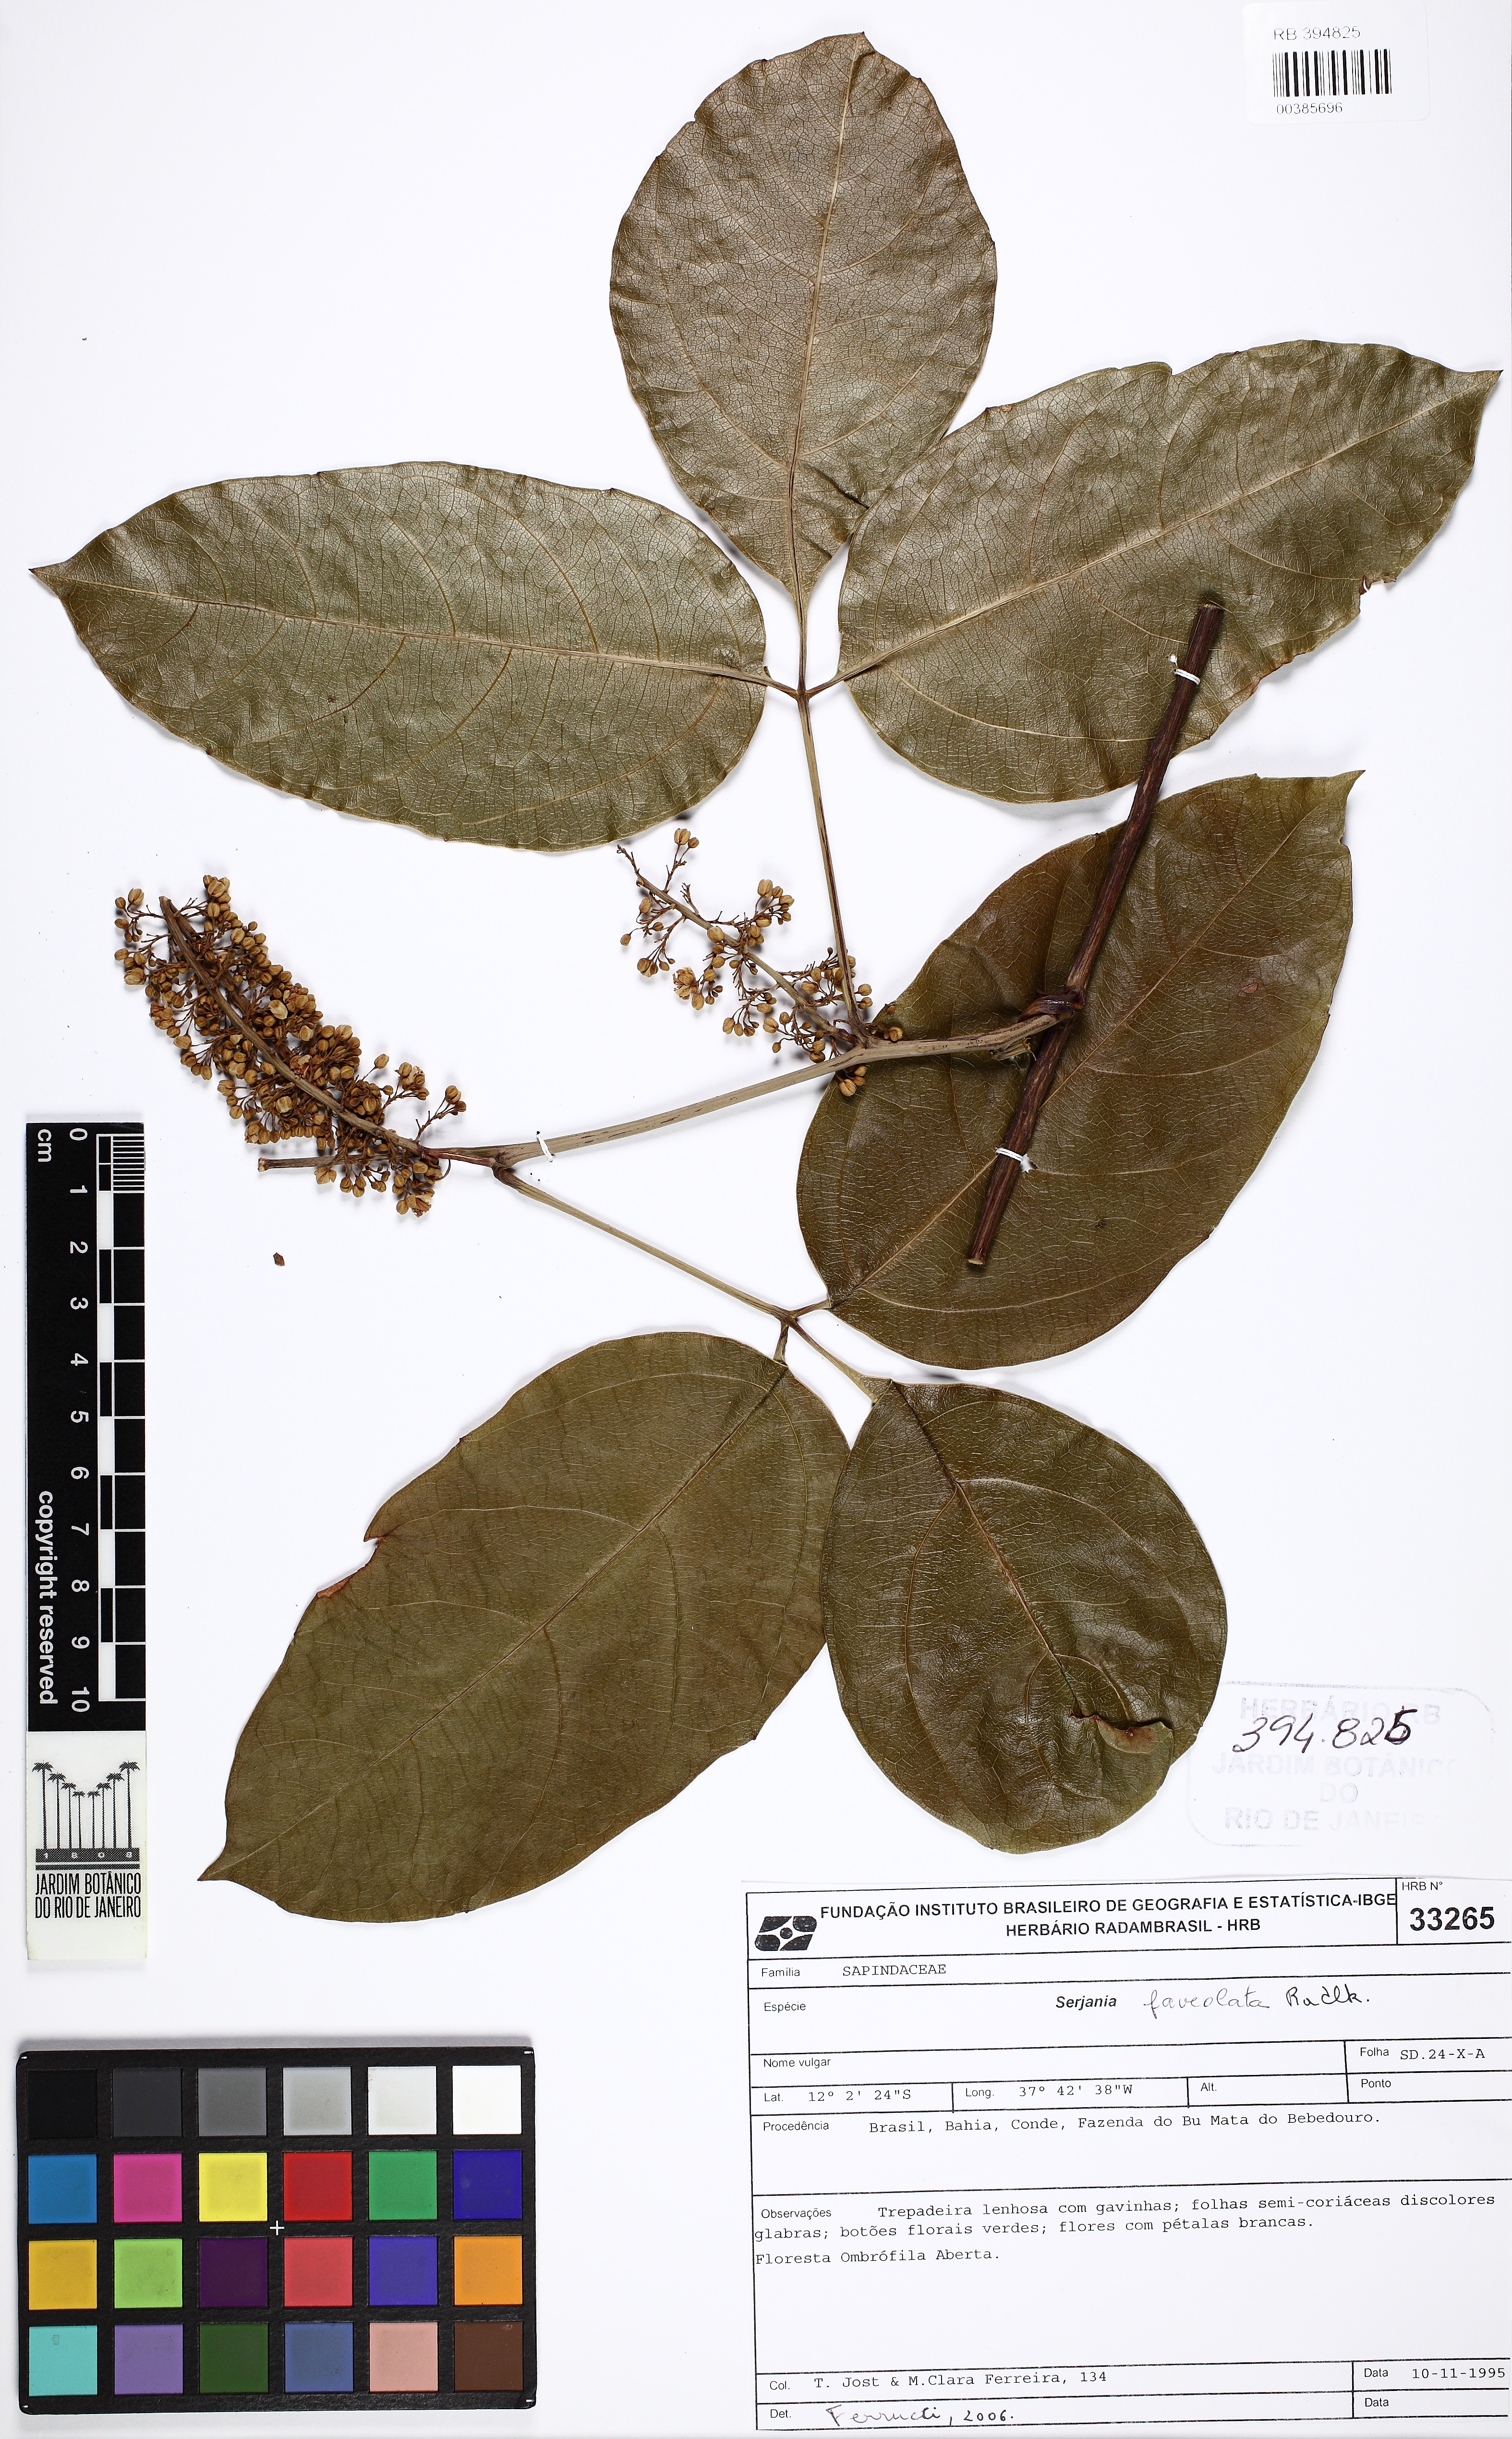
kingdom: Plantae
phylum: Tracheophyta
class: Magnoliopsida
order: Sapindales
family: Sapindaceae
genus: Serjania
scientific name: Serjania faveolata
